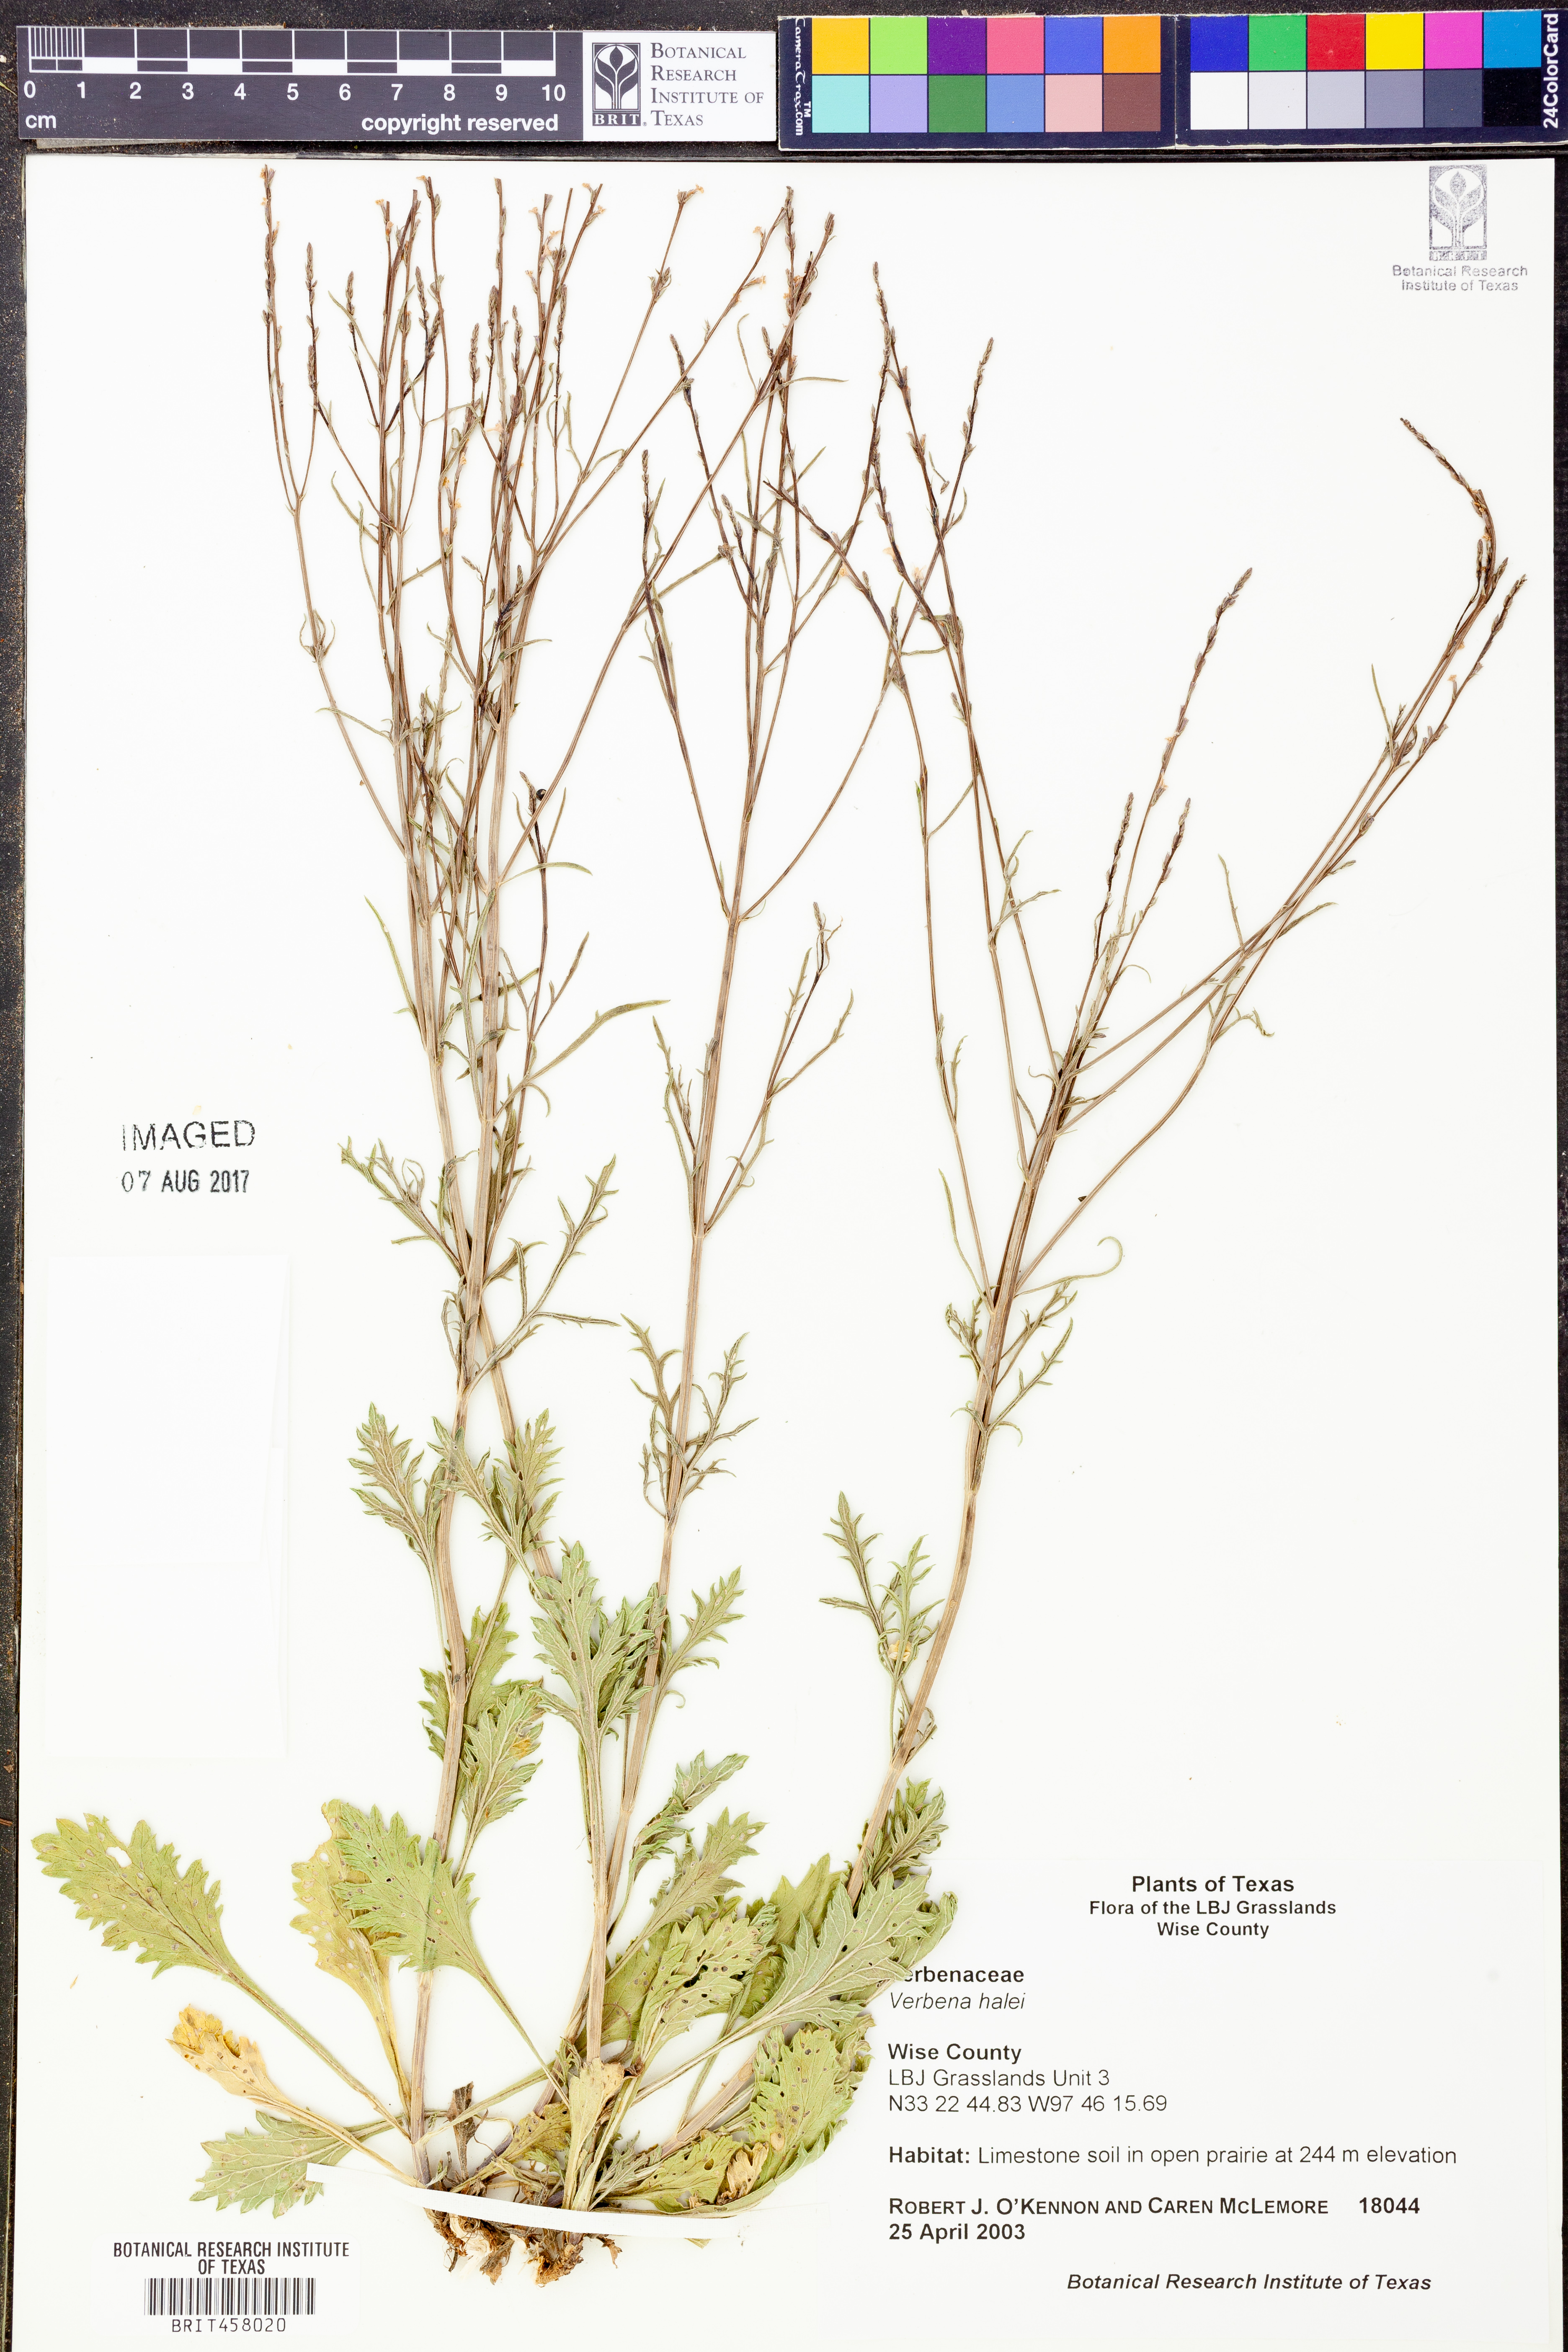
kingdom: Plantae
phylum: Tracheophyta
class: Magnoliopsida
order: Lamiales
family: Verbenaceae
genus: Verbena
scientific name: Verbena halei
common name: Texas vervain
